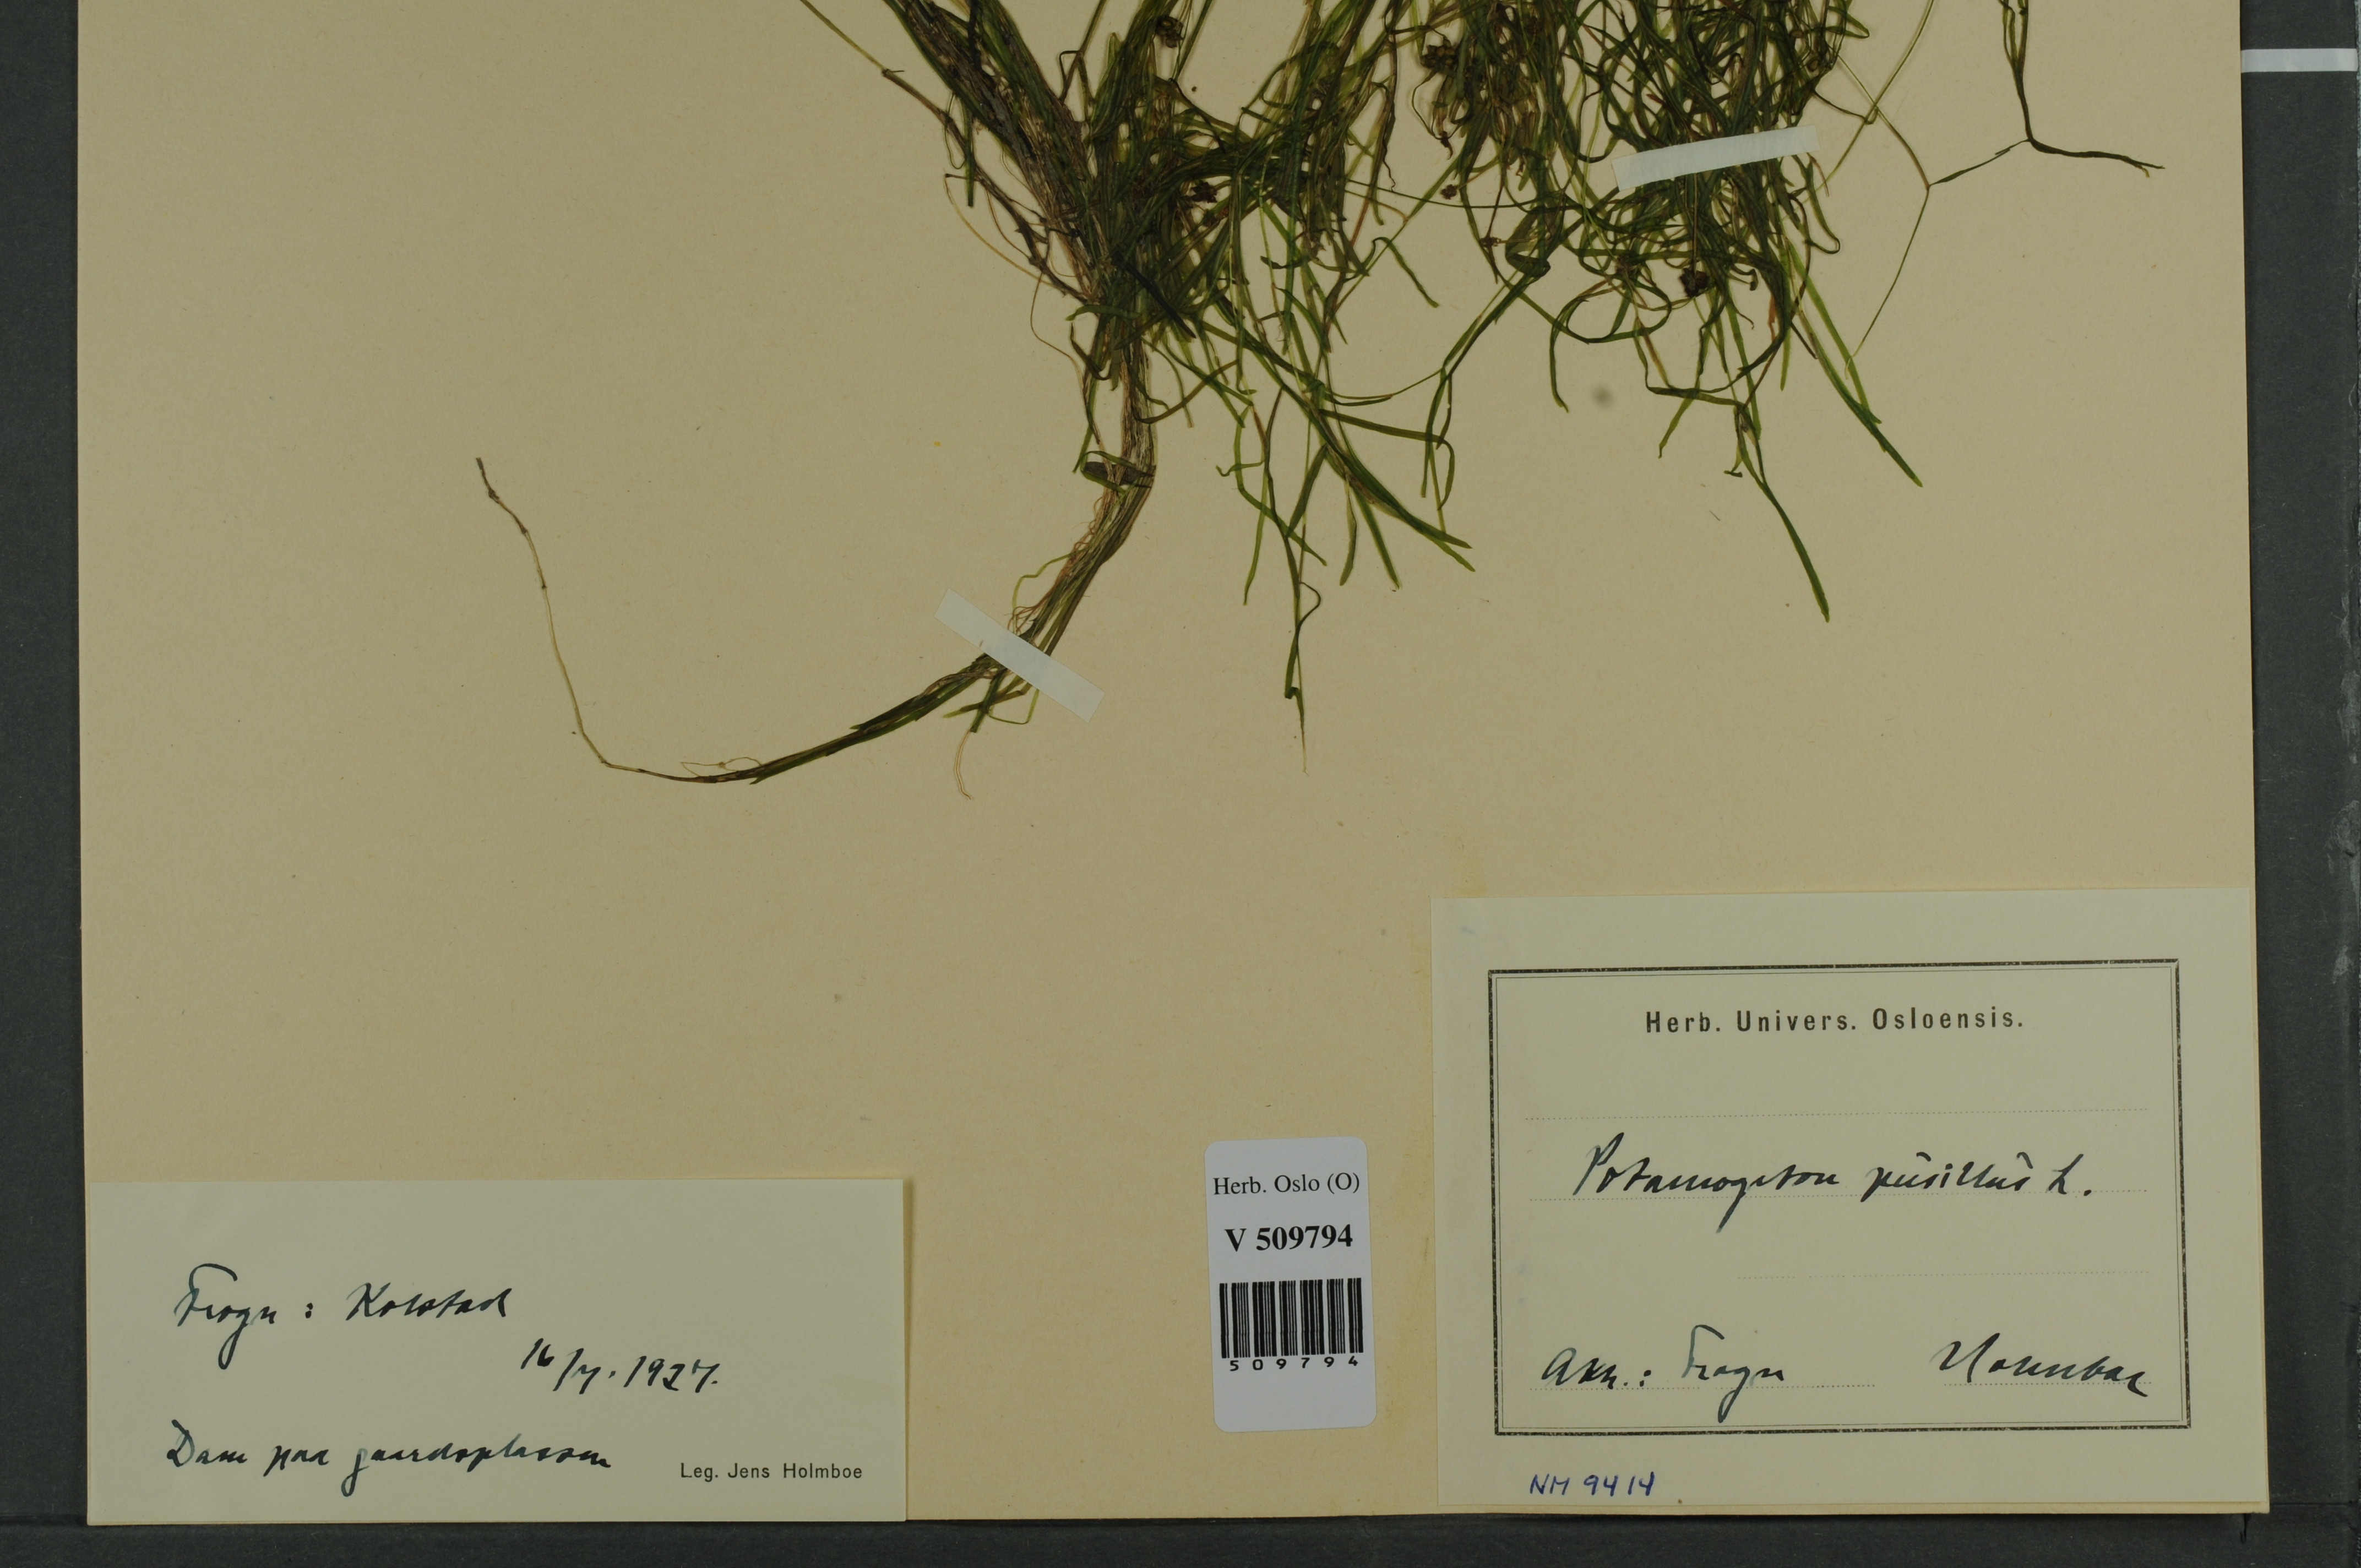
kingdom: Plantae
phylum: Tracheophyta
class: Liliopsida
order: Alismatales
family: Potamogetonaceae
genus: Potamogeton
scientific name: Potamogeton berchtoldii
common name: Small pondweed
